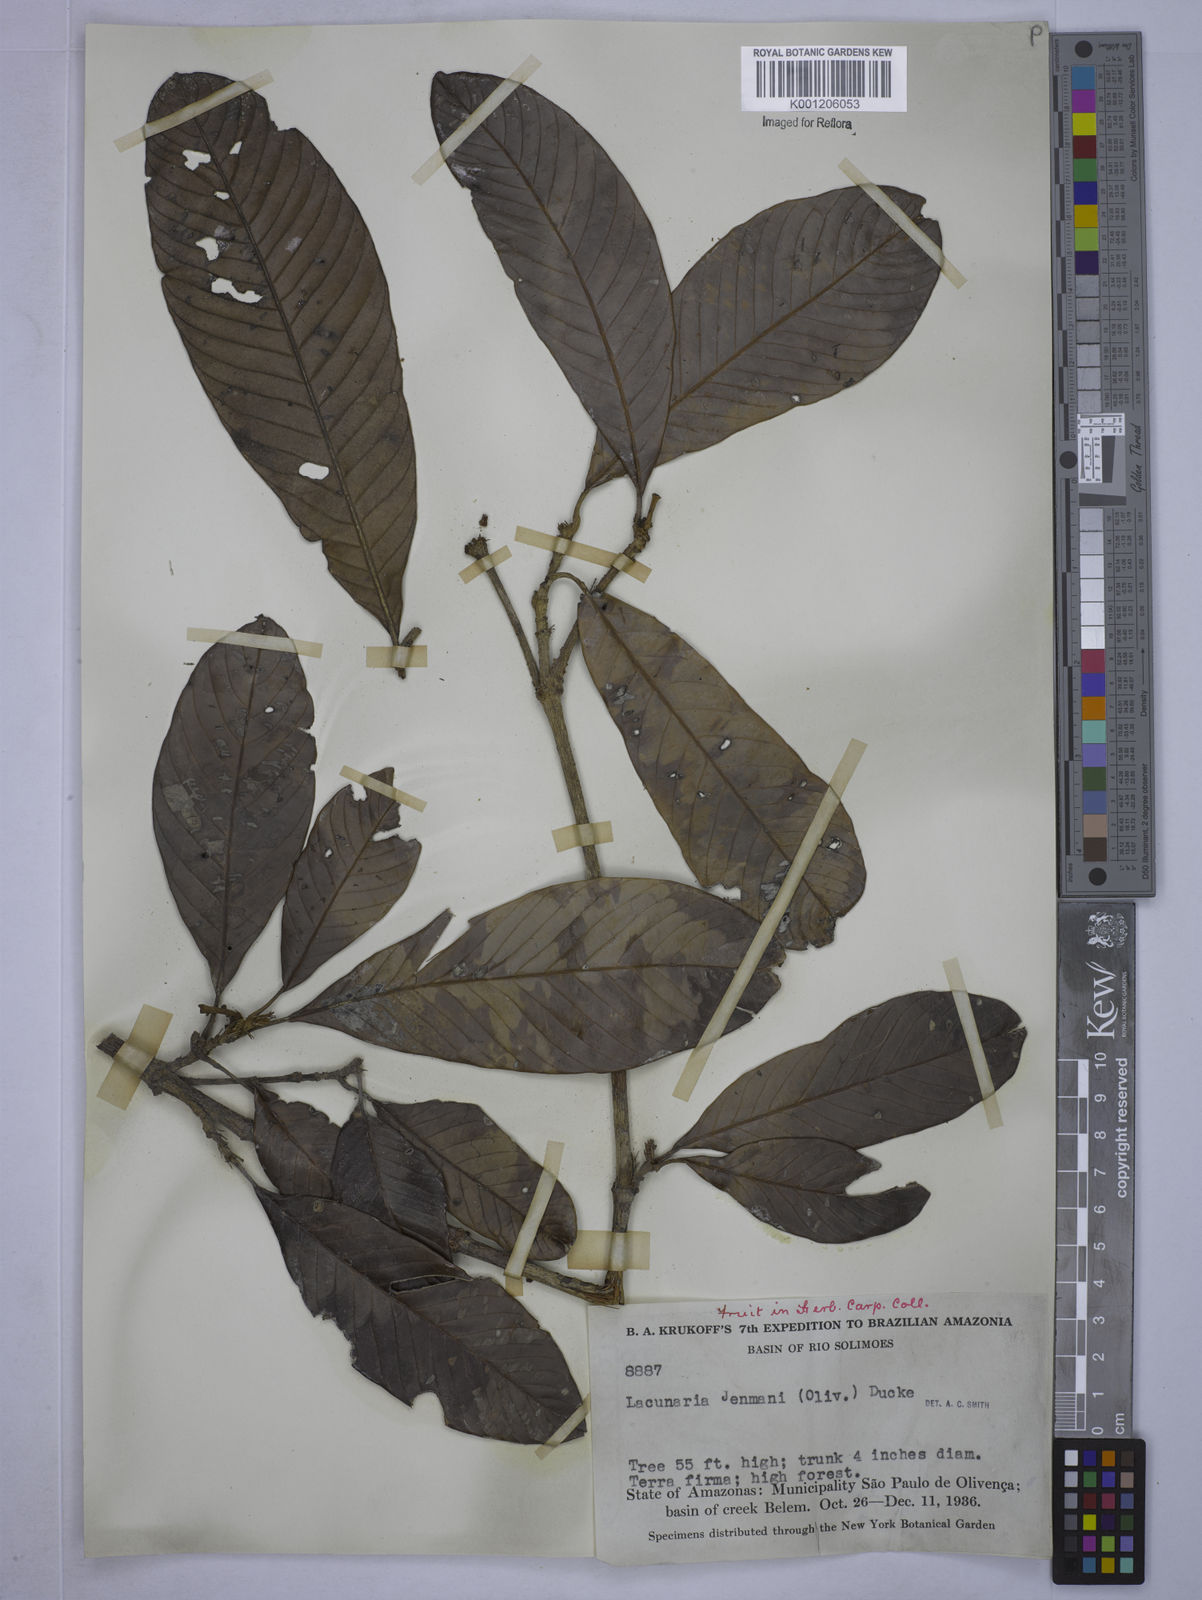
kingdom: Plantae
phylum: Tracheophyta
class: Magnoliopsida
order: Malpighiales
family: Quiinaceae
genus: Lacunaria
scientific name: Lacunaria jenmanii
